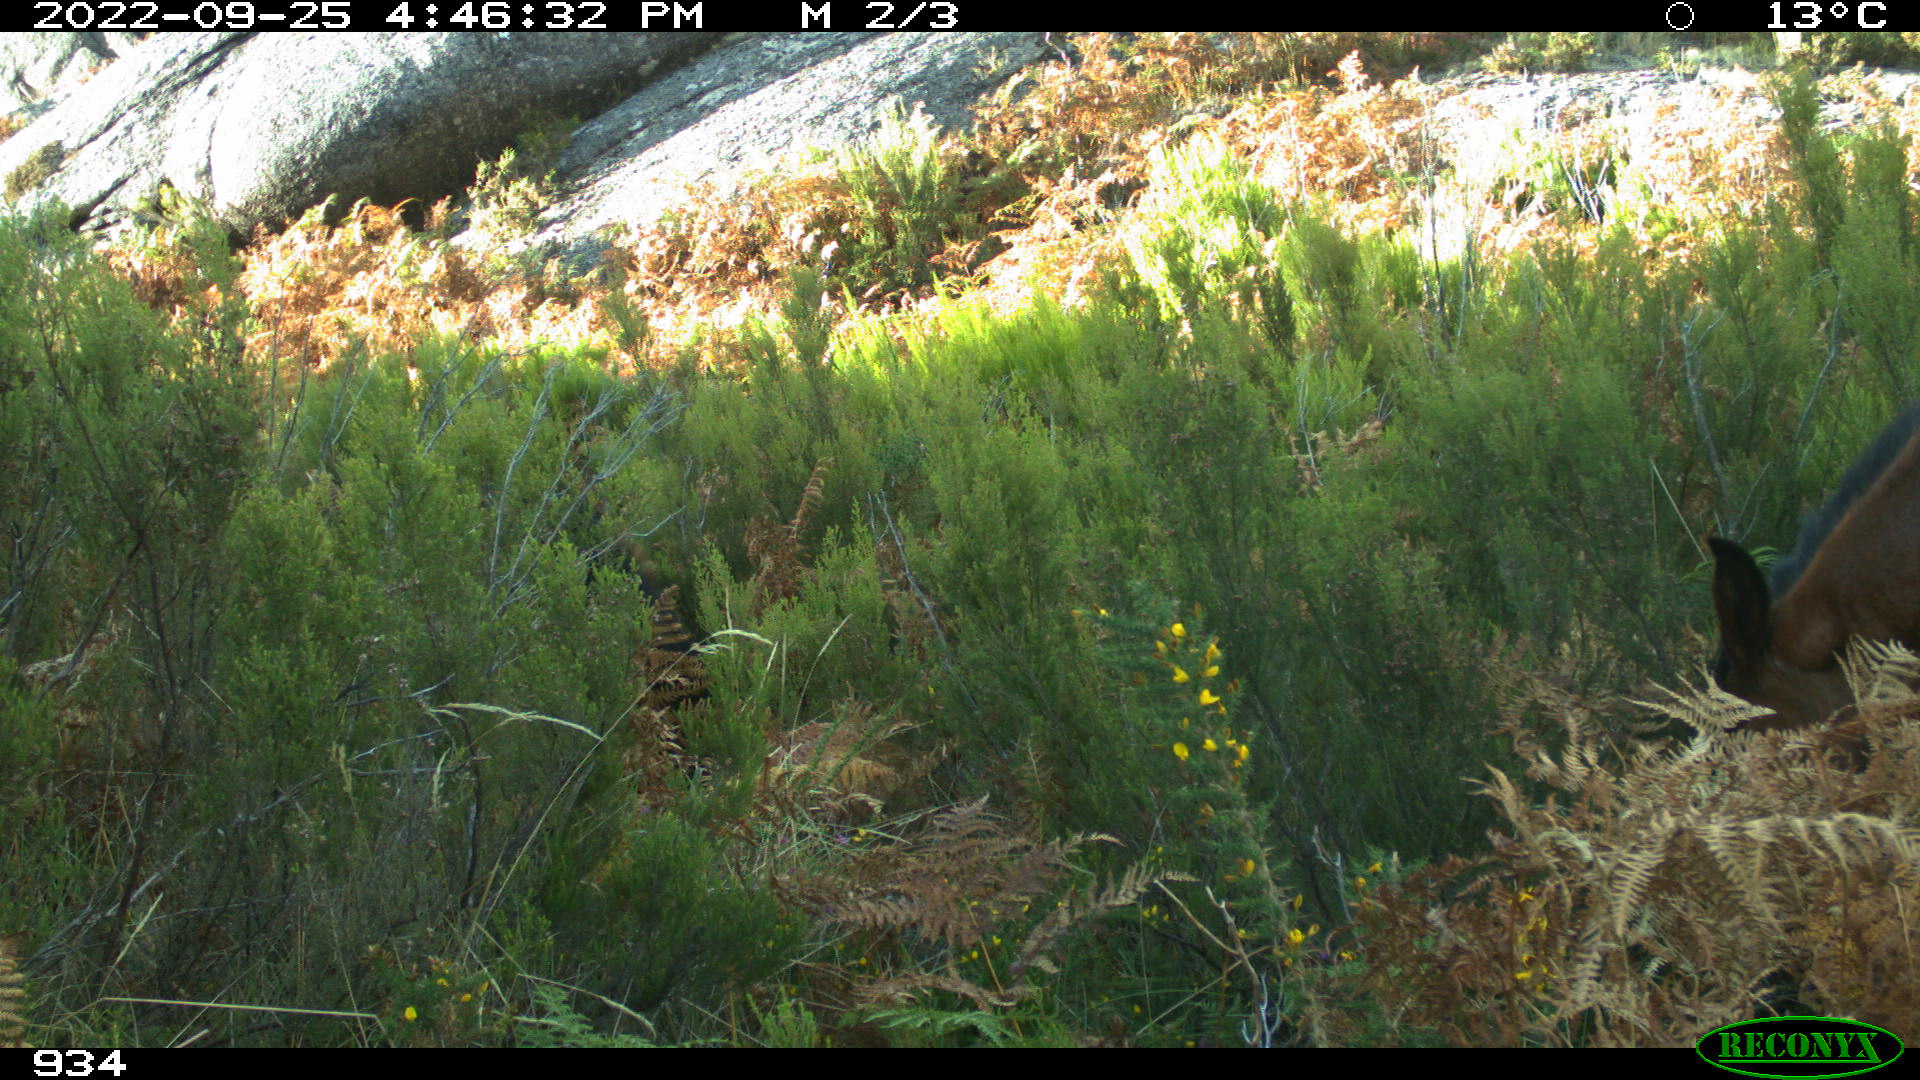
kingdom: Animalia
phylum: Chordata
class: Mammalia
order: Perissodactyla
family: Equidae
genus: Equus
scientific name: Equus caballus
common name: Horse
